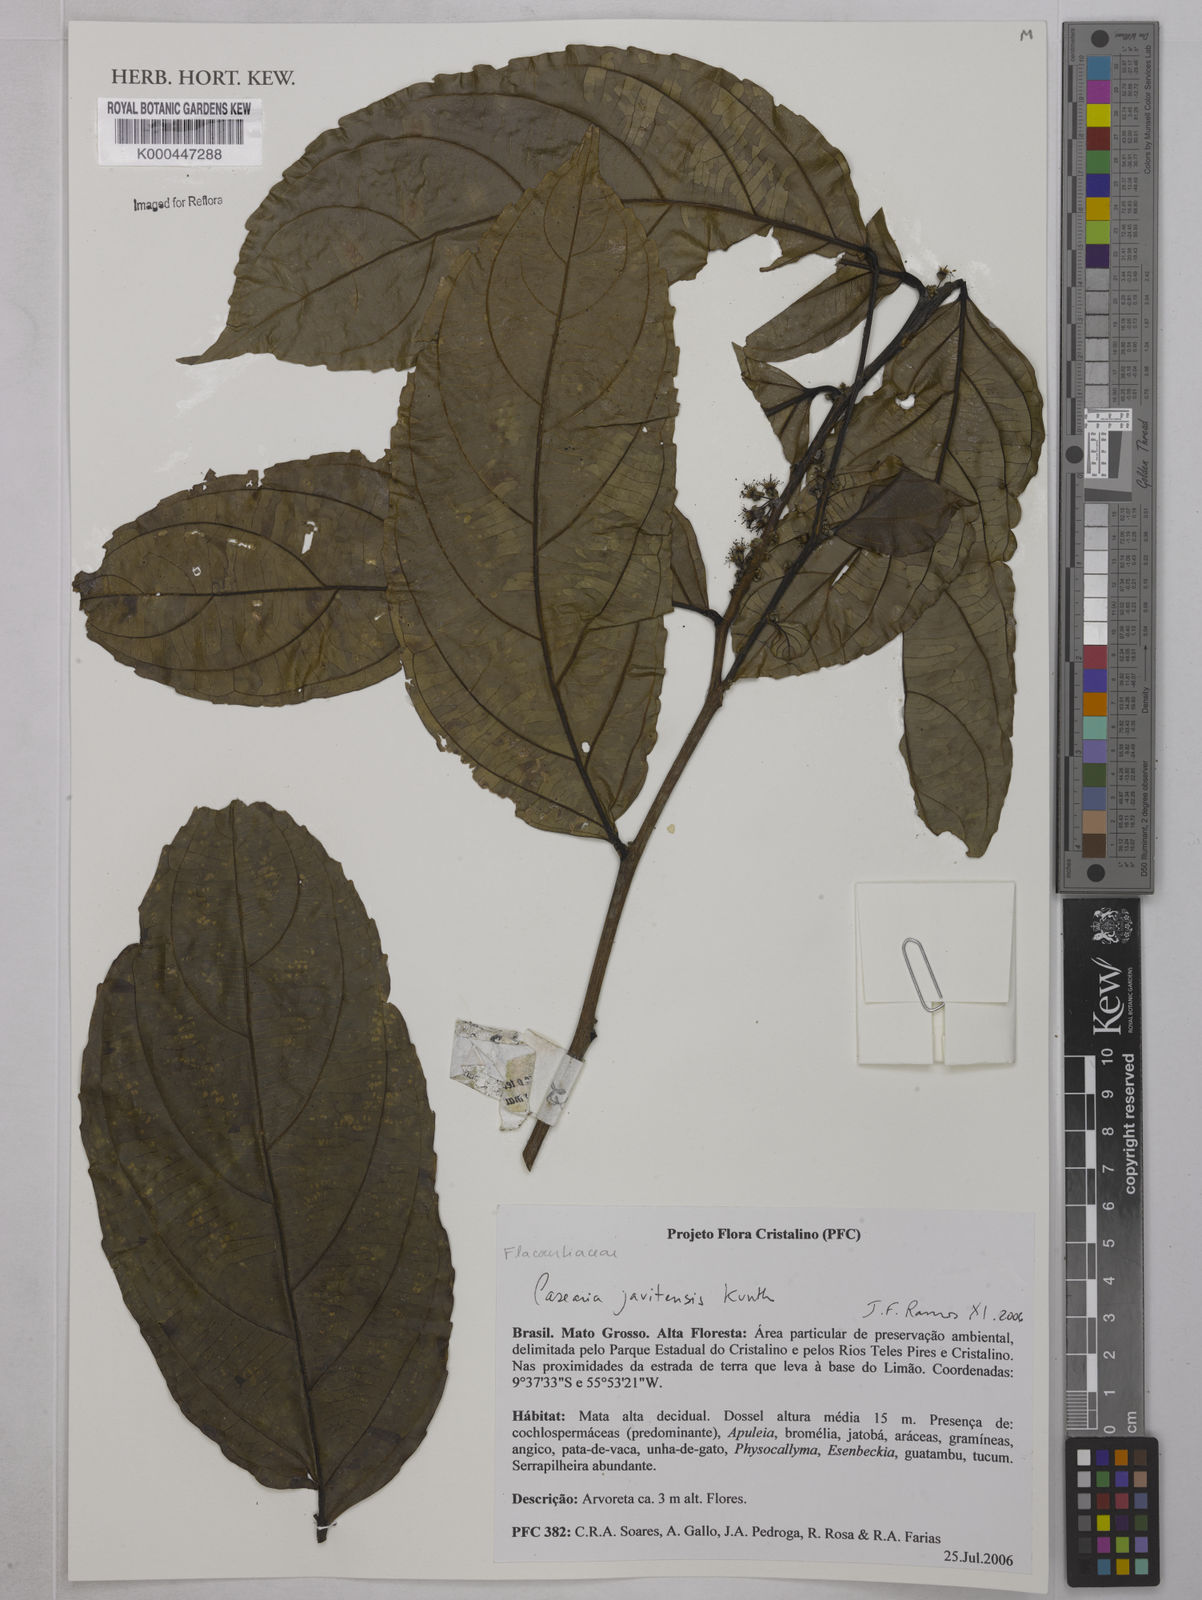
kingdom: Plantae
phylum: Tracheophyta
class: Magnoliopsida
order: Malpighiales
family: Salicaceae
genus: Piparea
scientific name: Piparea multiflora
